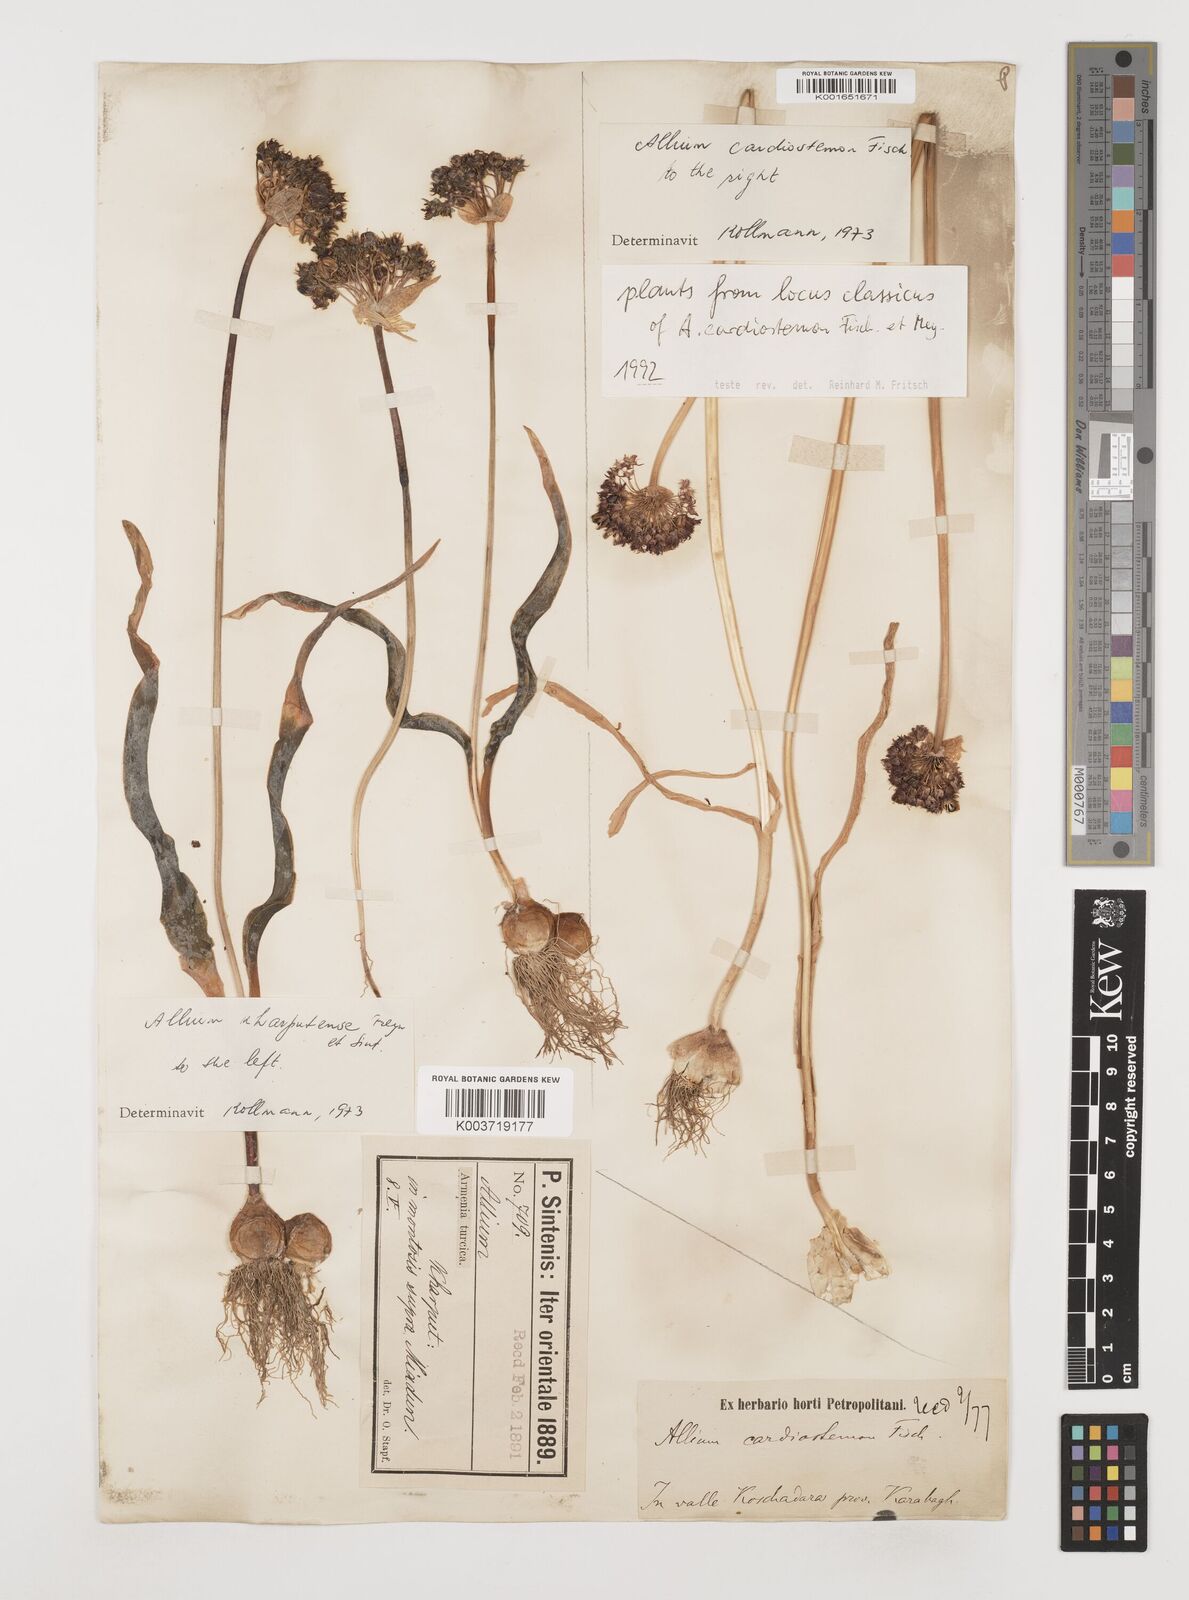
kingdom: Plantae
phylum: Tracheophyta
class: Liliopsida
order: Asparagales
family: Amaryllidaceae
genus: Allium
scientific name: Allium cardiostemon
